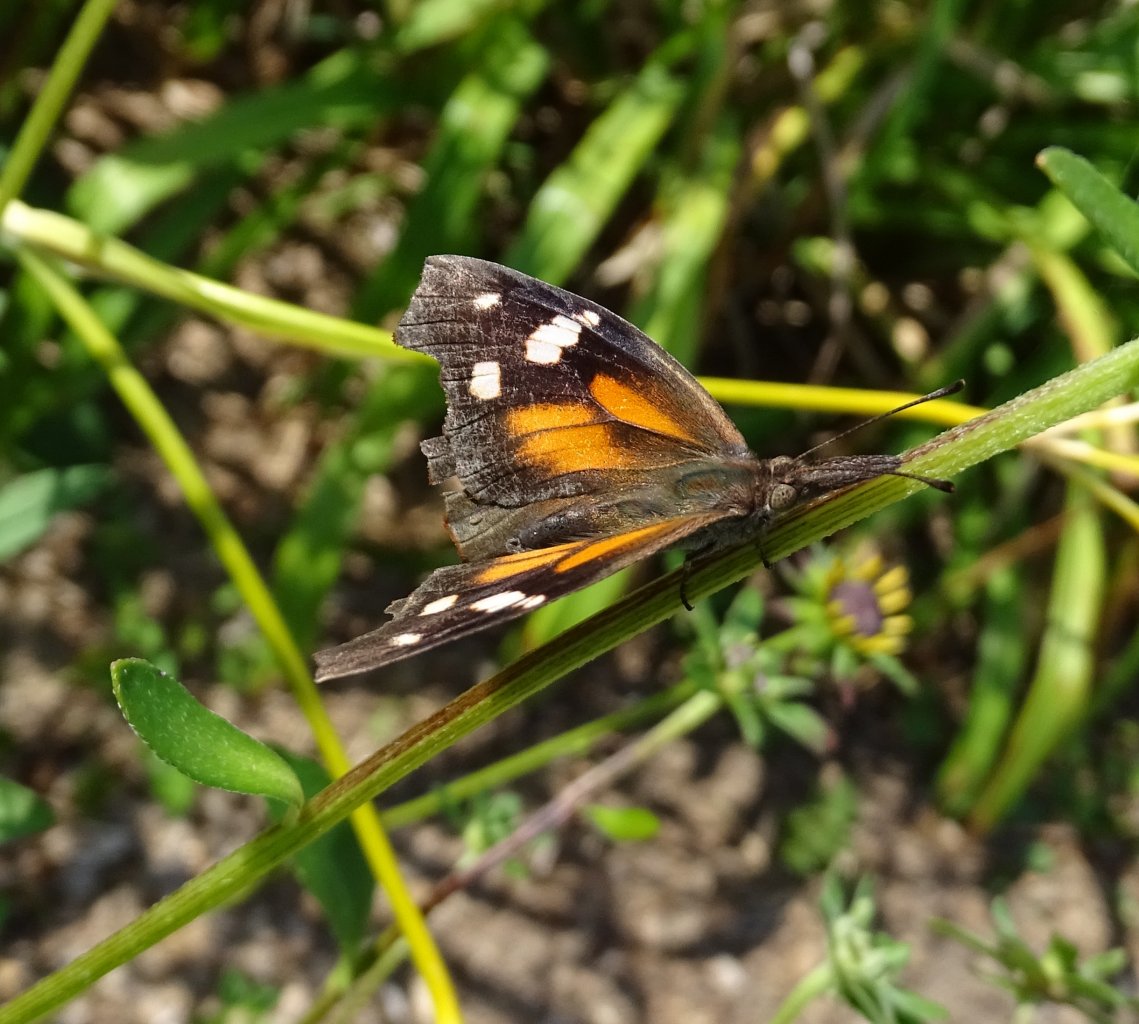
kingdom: Animalia
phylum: Arthropoda
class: Insecta
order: Lepidoptera
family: Nymphalidae
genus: Libytheana
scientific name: Libytheana carinenta
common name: American Snout
